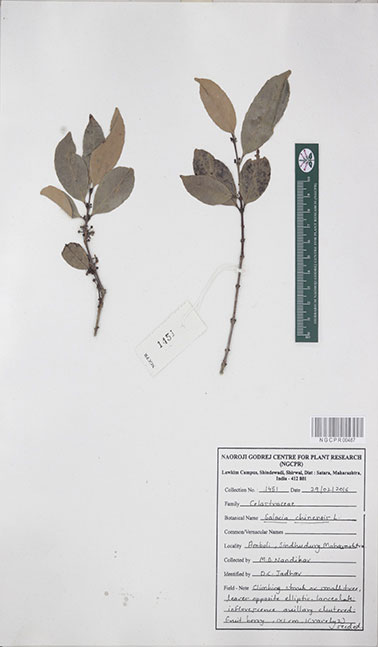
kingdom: Plantae
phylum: Tracheophyta
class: Magnoliopsida
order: Celastrales
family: Celastraceae
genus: Salacia
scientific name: Salacia chinensis
